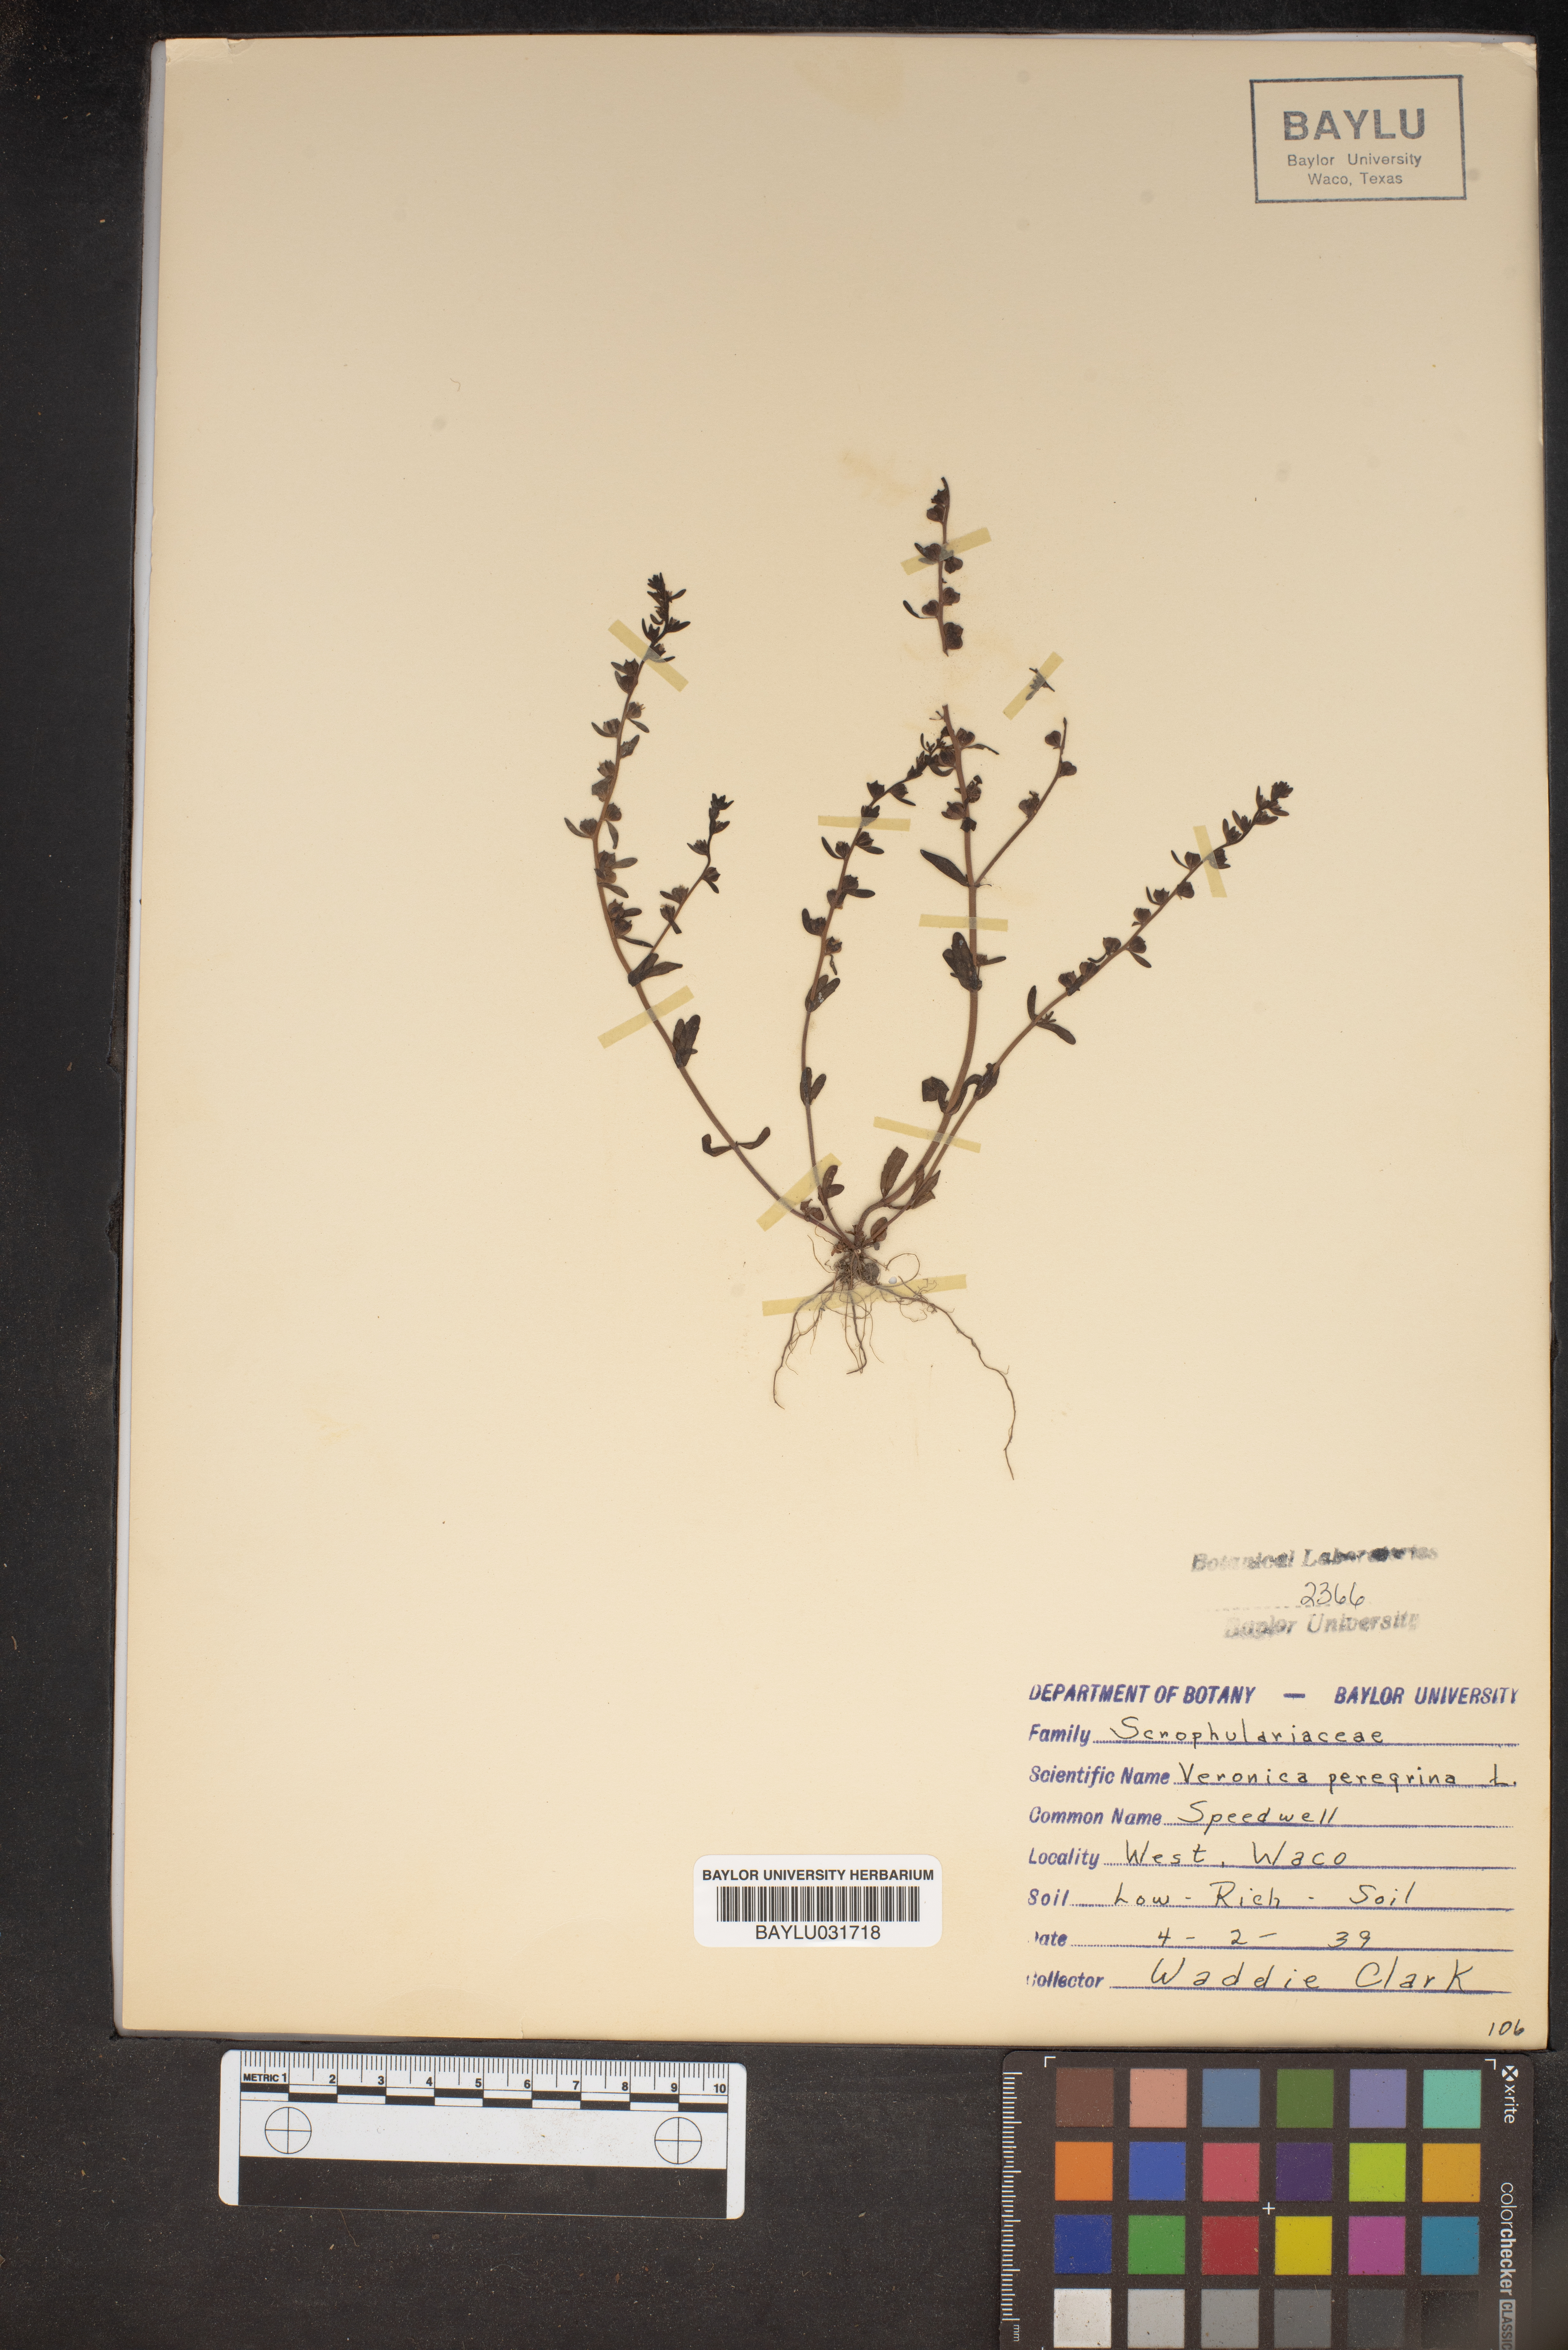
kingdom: Plantae
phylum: Tracheophyta
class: Magnoliopsida
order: Lamiales
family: Plantaginaceae
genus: Veronica
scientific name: Veronica peregrina
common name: Neckweed
